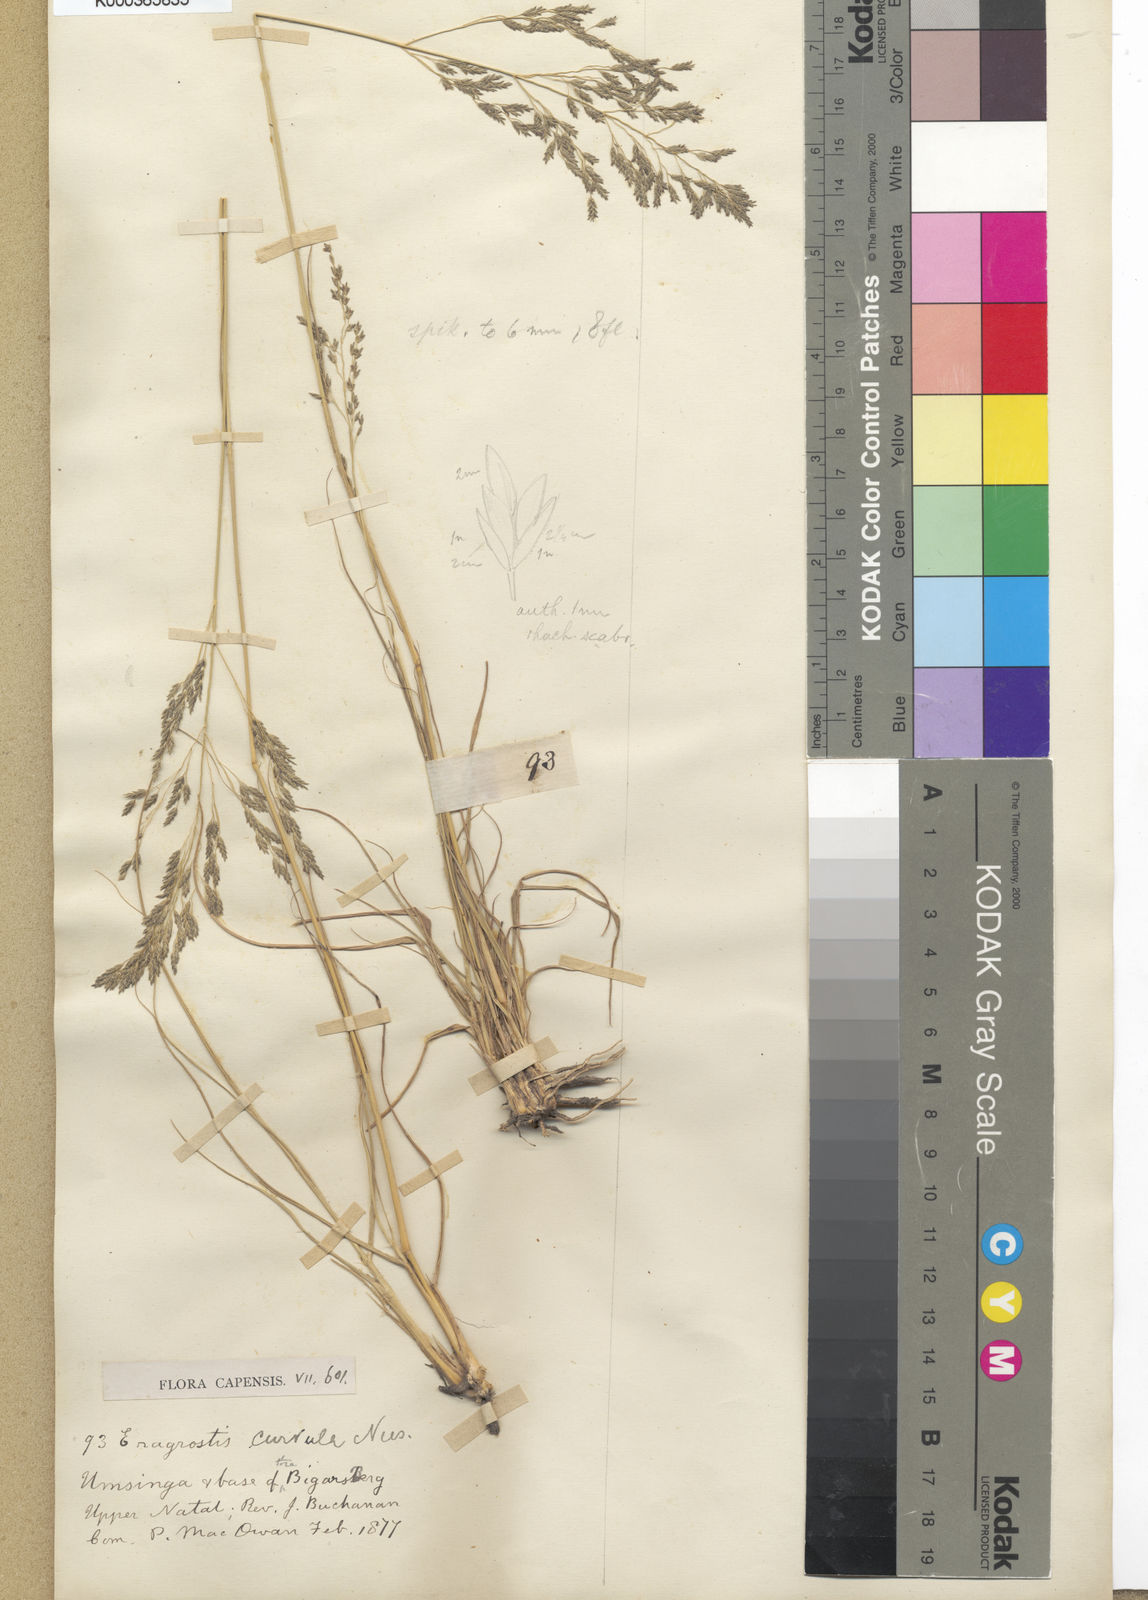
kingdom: Plantae
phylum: Tracheophyta
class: Liliopsida
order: Poales
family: Poaceae
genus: Eragrostis
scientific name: Eragrostis curvula
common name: African love-grass
